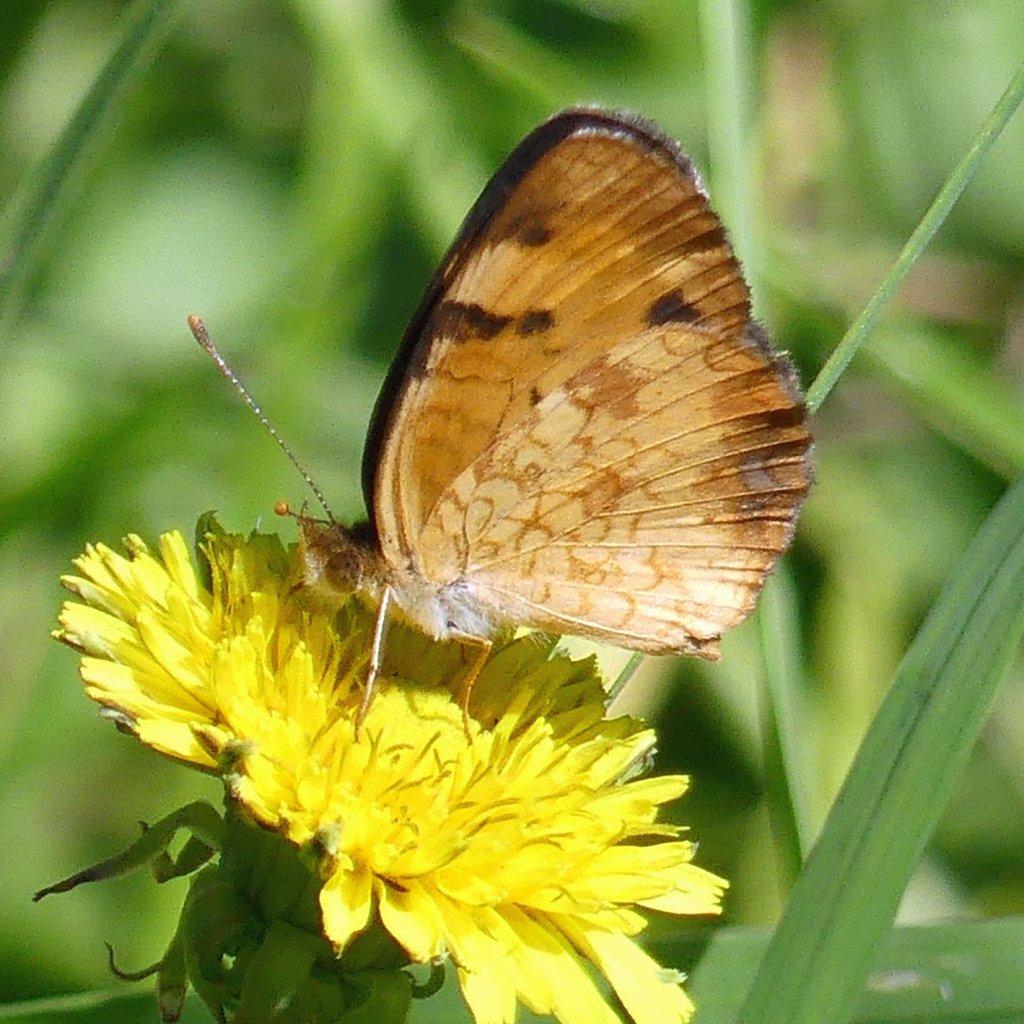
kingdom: Animalia
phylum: Arthropoda
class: Insecta
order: Lepidoptera
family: Nymphalidae
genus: Phyciodes
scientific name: Phyciodes tharos
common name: Northern Crescent
